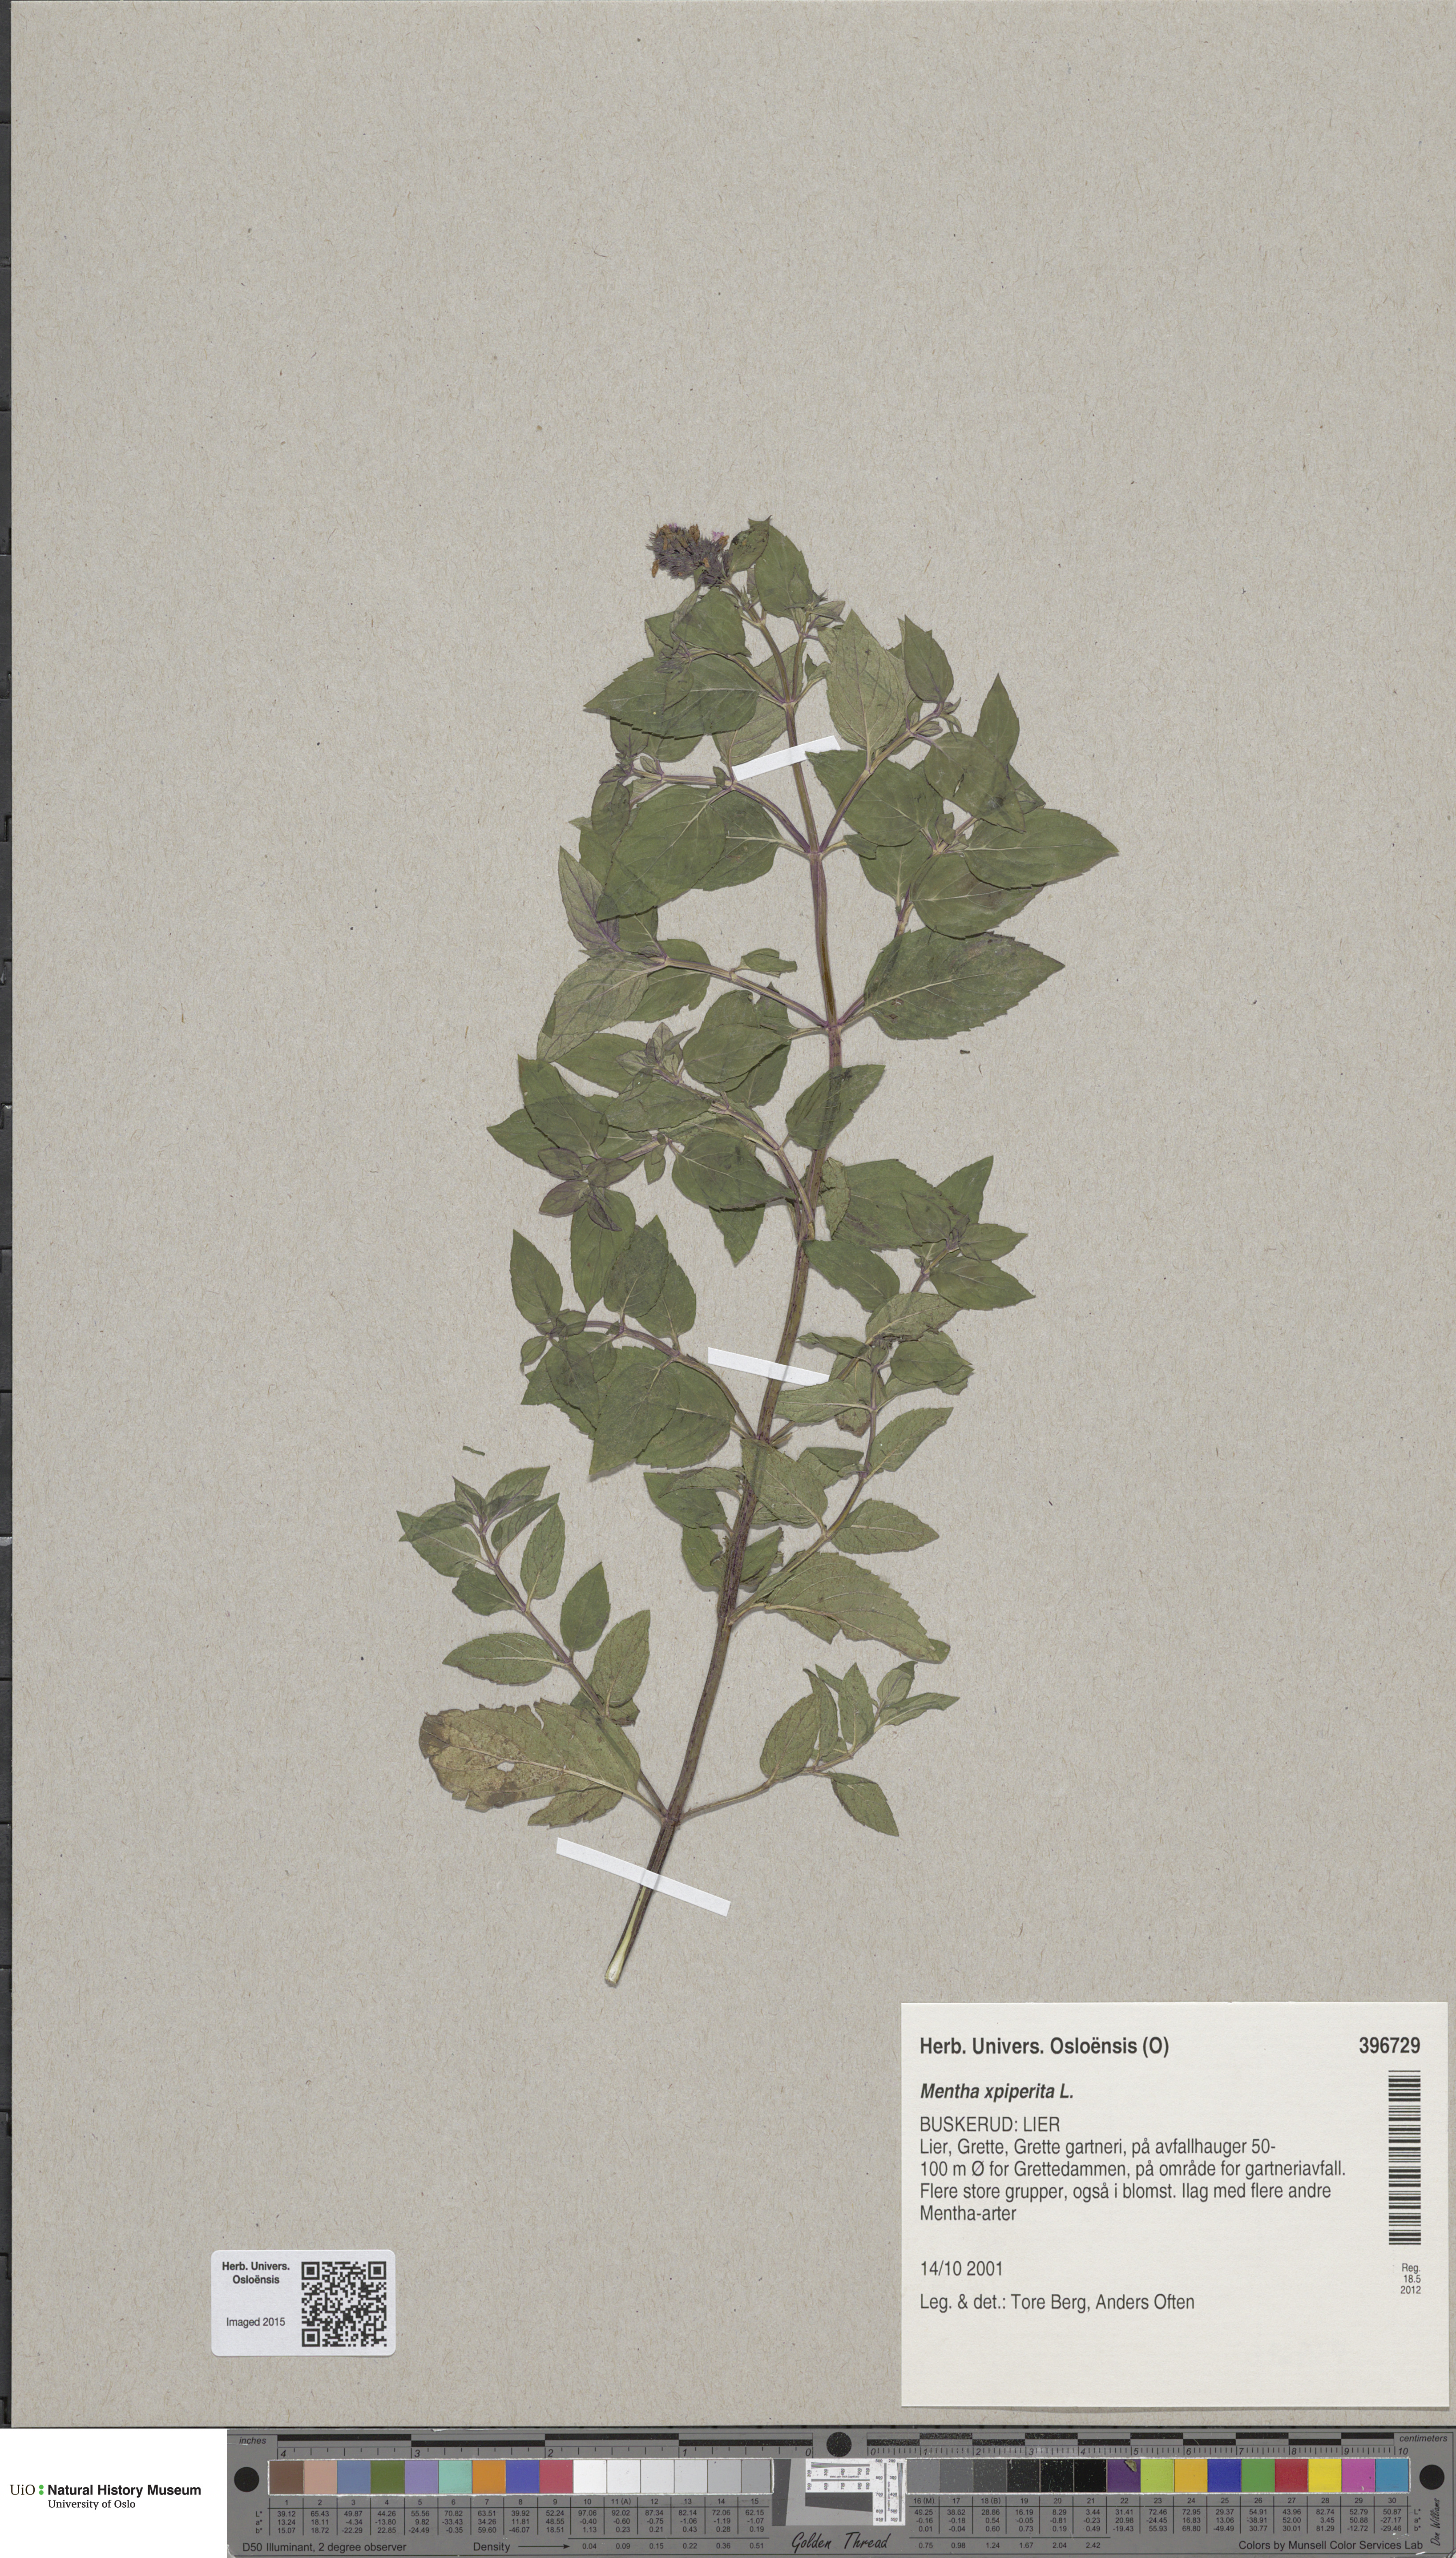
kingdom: Plantae
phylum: Tracheophyta
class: Magnoliopsida
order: Lamiales
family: Lamiaceae
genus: Mentha
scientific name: Mentha piperita
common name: Peppermint
